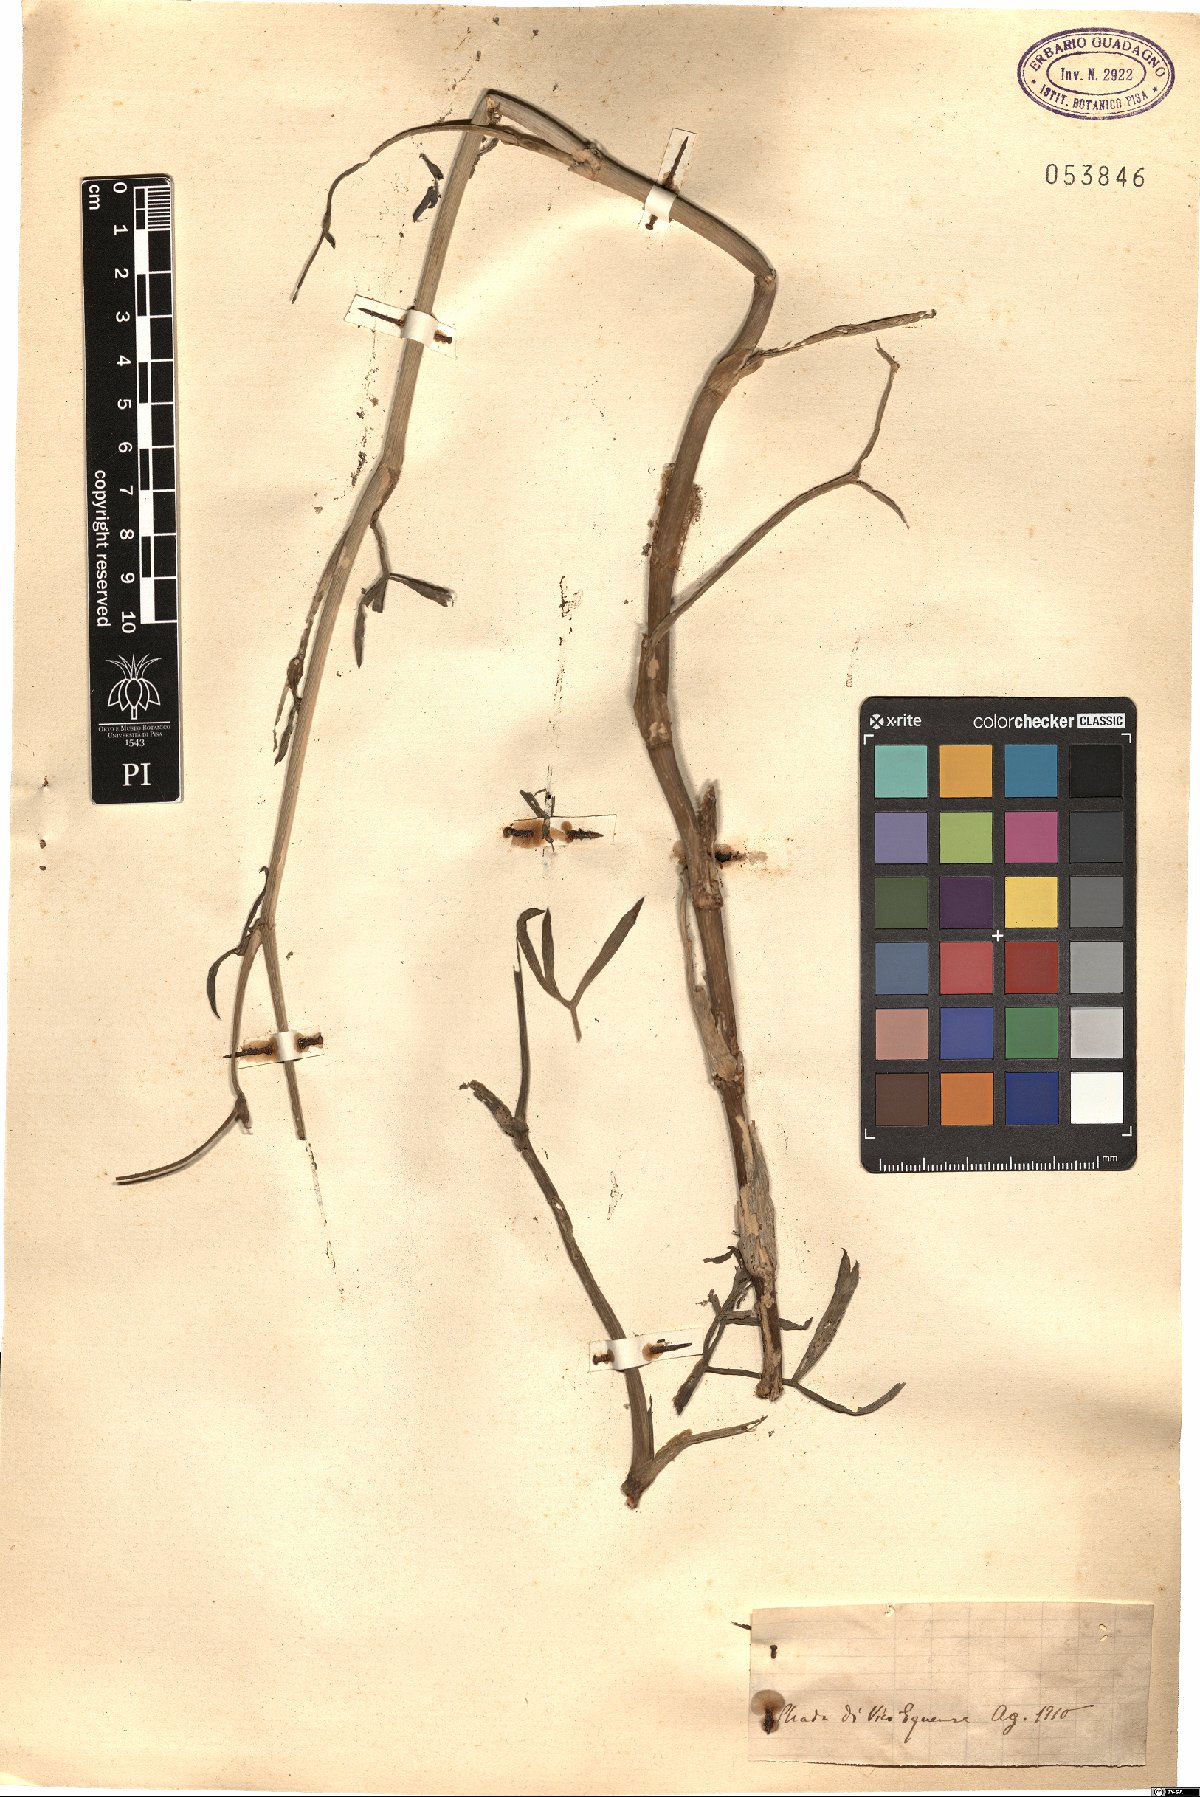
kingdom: Plantae
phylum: Tracheophyta
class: Magnoliopsida
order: Apiales
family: Apiaceae
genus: Crithmum
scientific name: Crithmum
